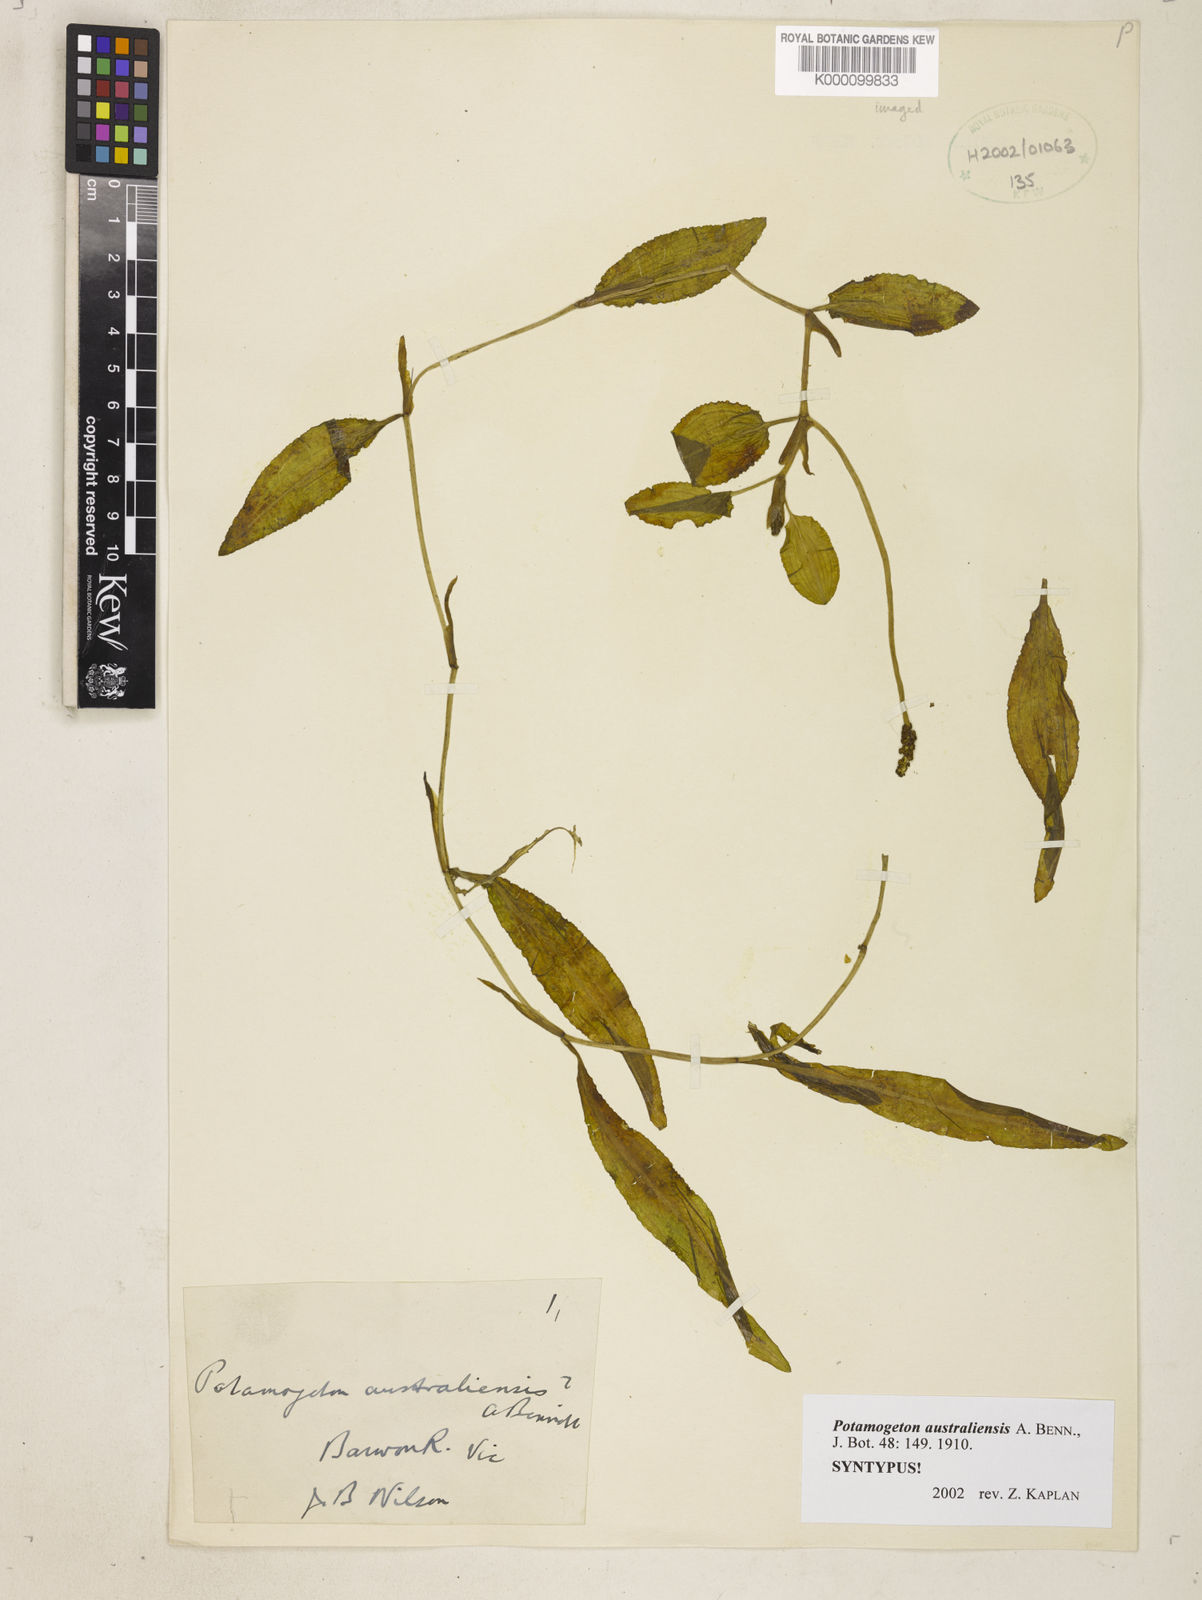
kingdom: Plantae
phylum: Tracheophyta
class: Liliopsida
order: Alismatales
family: Potamogetonaceae
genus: Potamogeton
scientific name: Potamogeton australiensis
